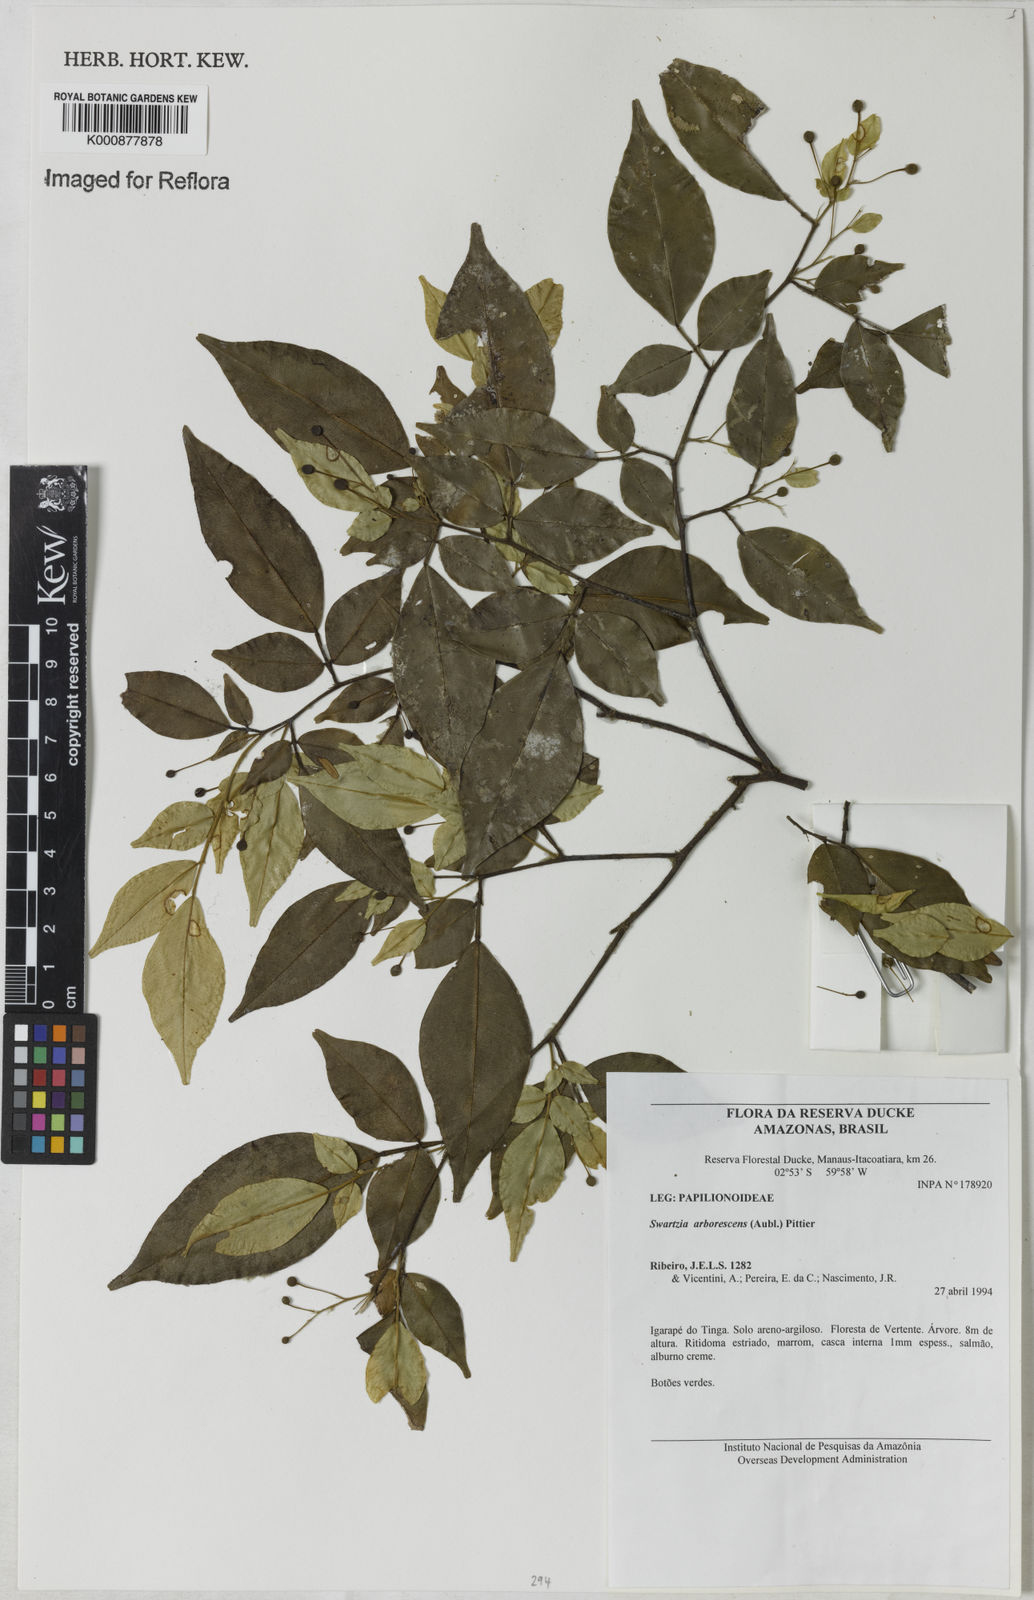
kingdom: Plantae
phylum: Tracheophyta
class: Magnoliopsida
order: Fabales
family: Fabaceae
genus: Swartzia
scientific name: Swartzia arborescens
